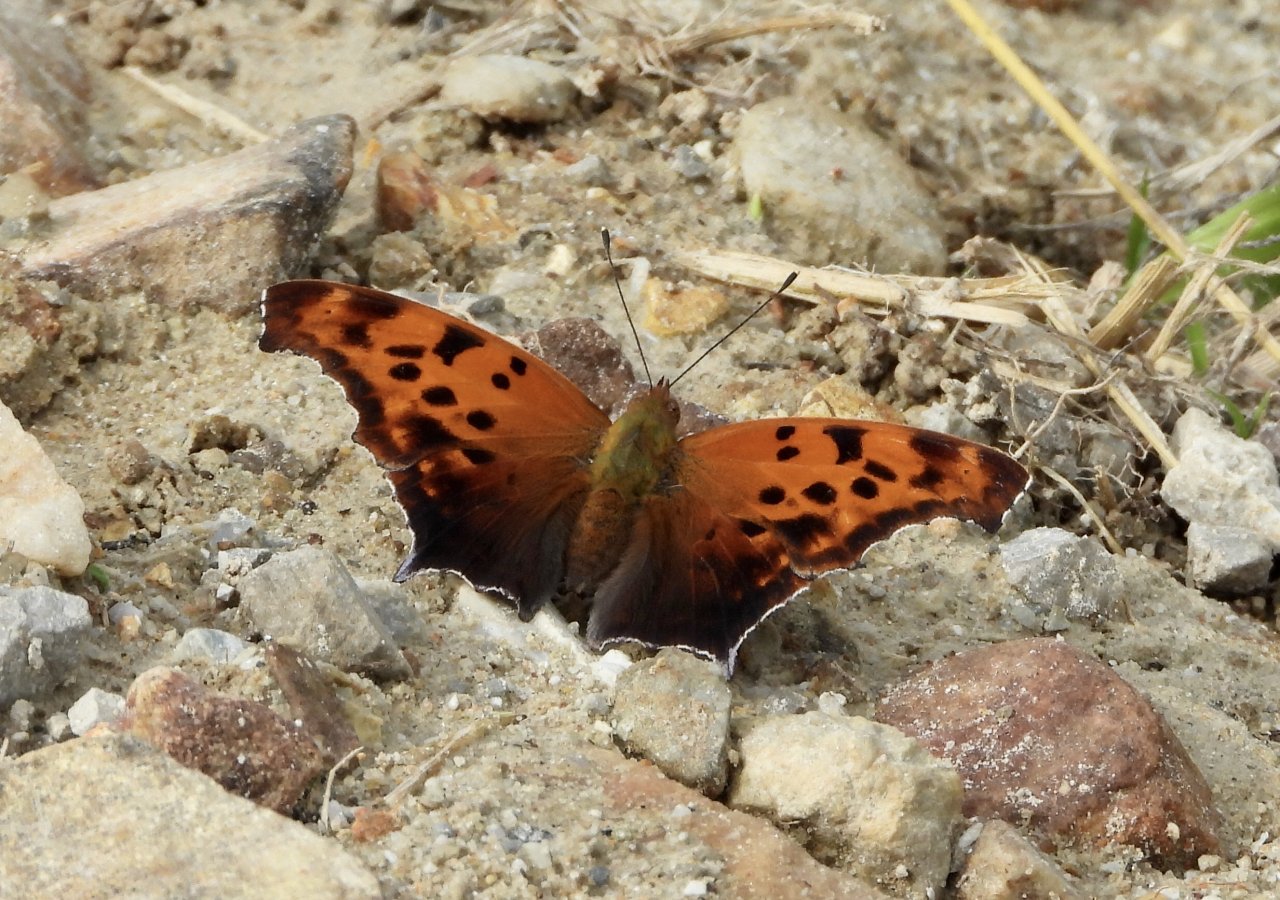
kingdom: Animalia
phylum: Arthropoda
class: Insecta
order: Lepidoptera
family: Nymphalidae
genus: Polygonia
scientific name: Polygonia interrogationis
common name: Question Mark
